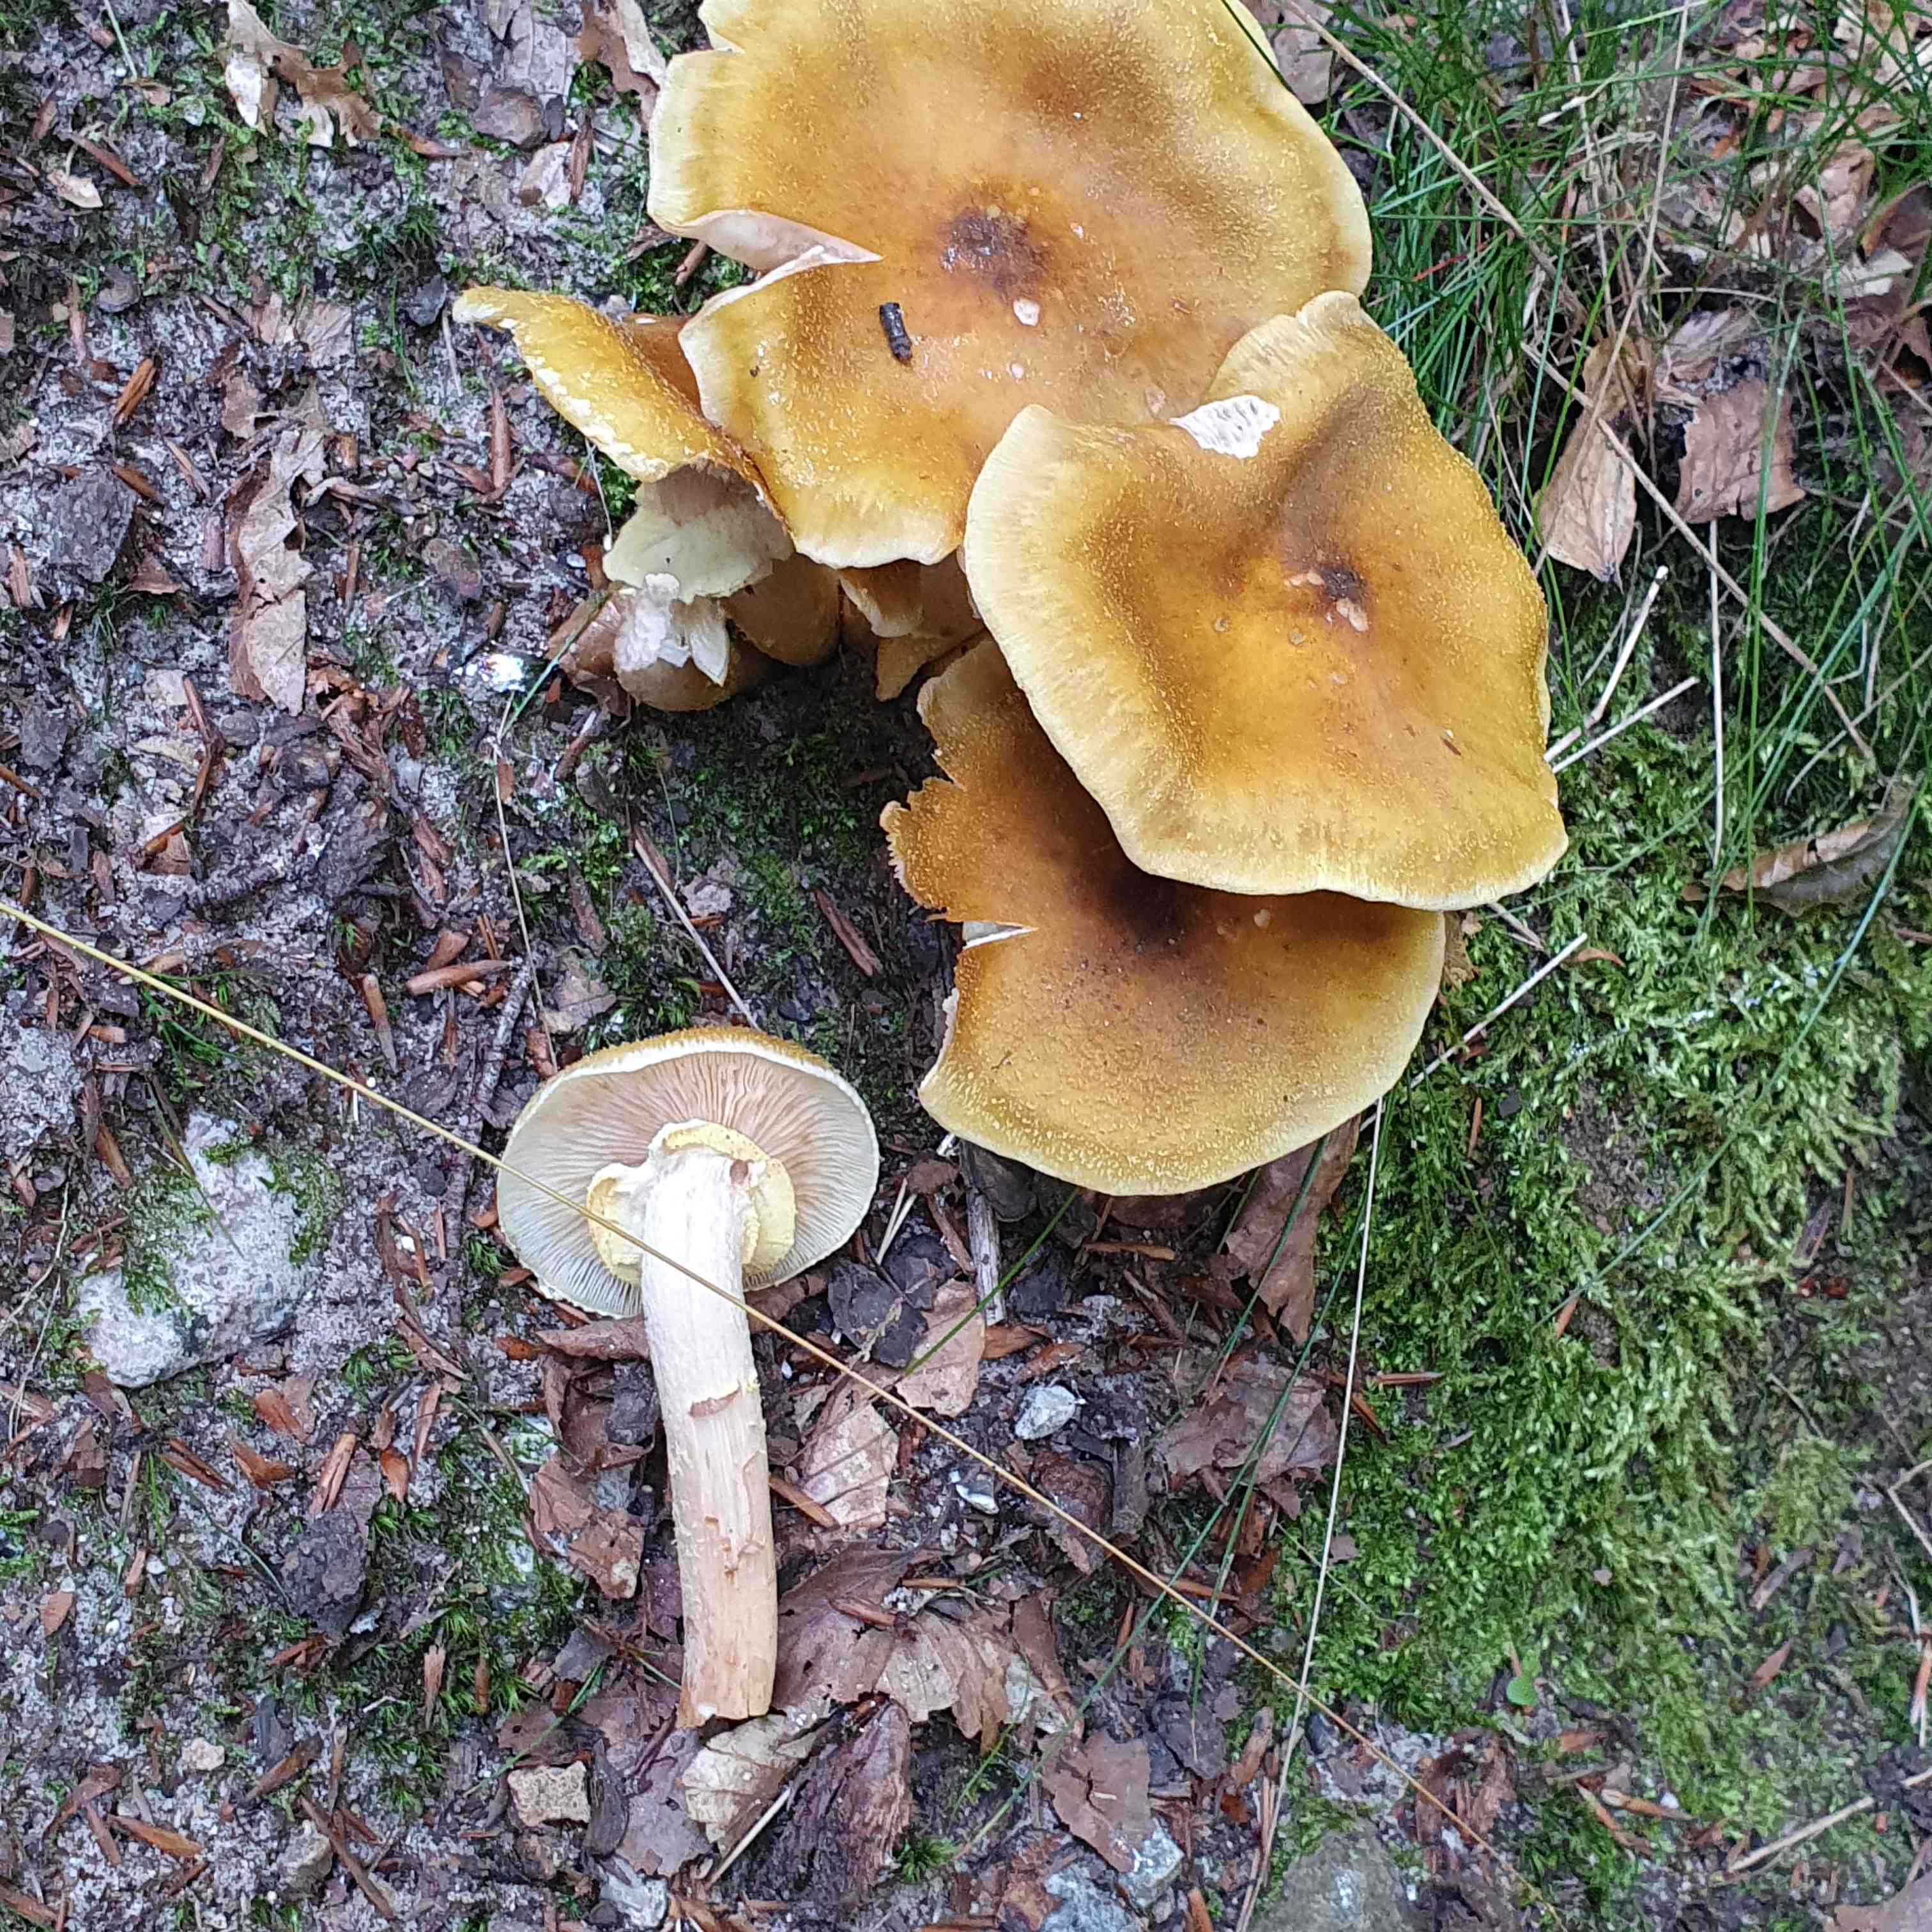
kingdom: Fungi
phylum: Basidiomycota
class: Agaricomycetes
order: Agaricales
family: Physalacriaceae
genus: Armillaria
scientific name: Armillaria mellea
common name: ægte honningsvamp
